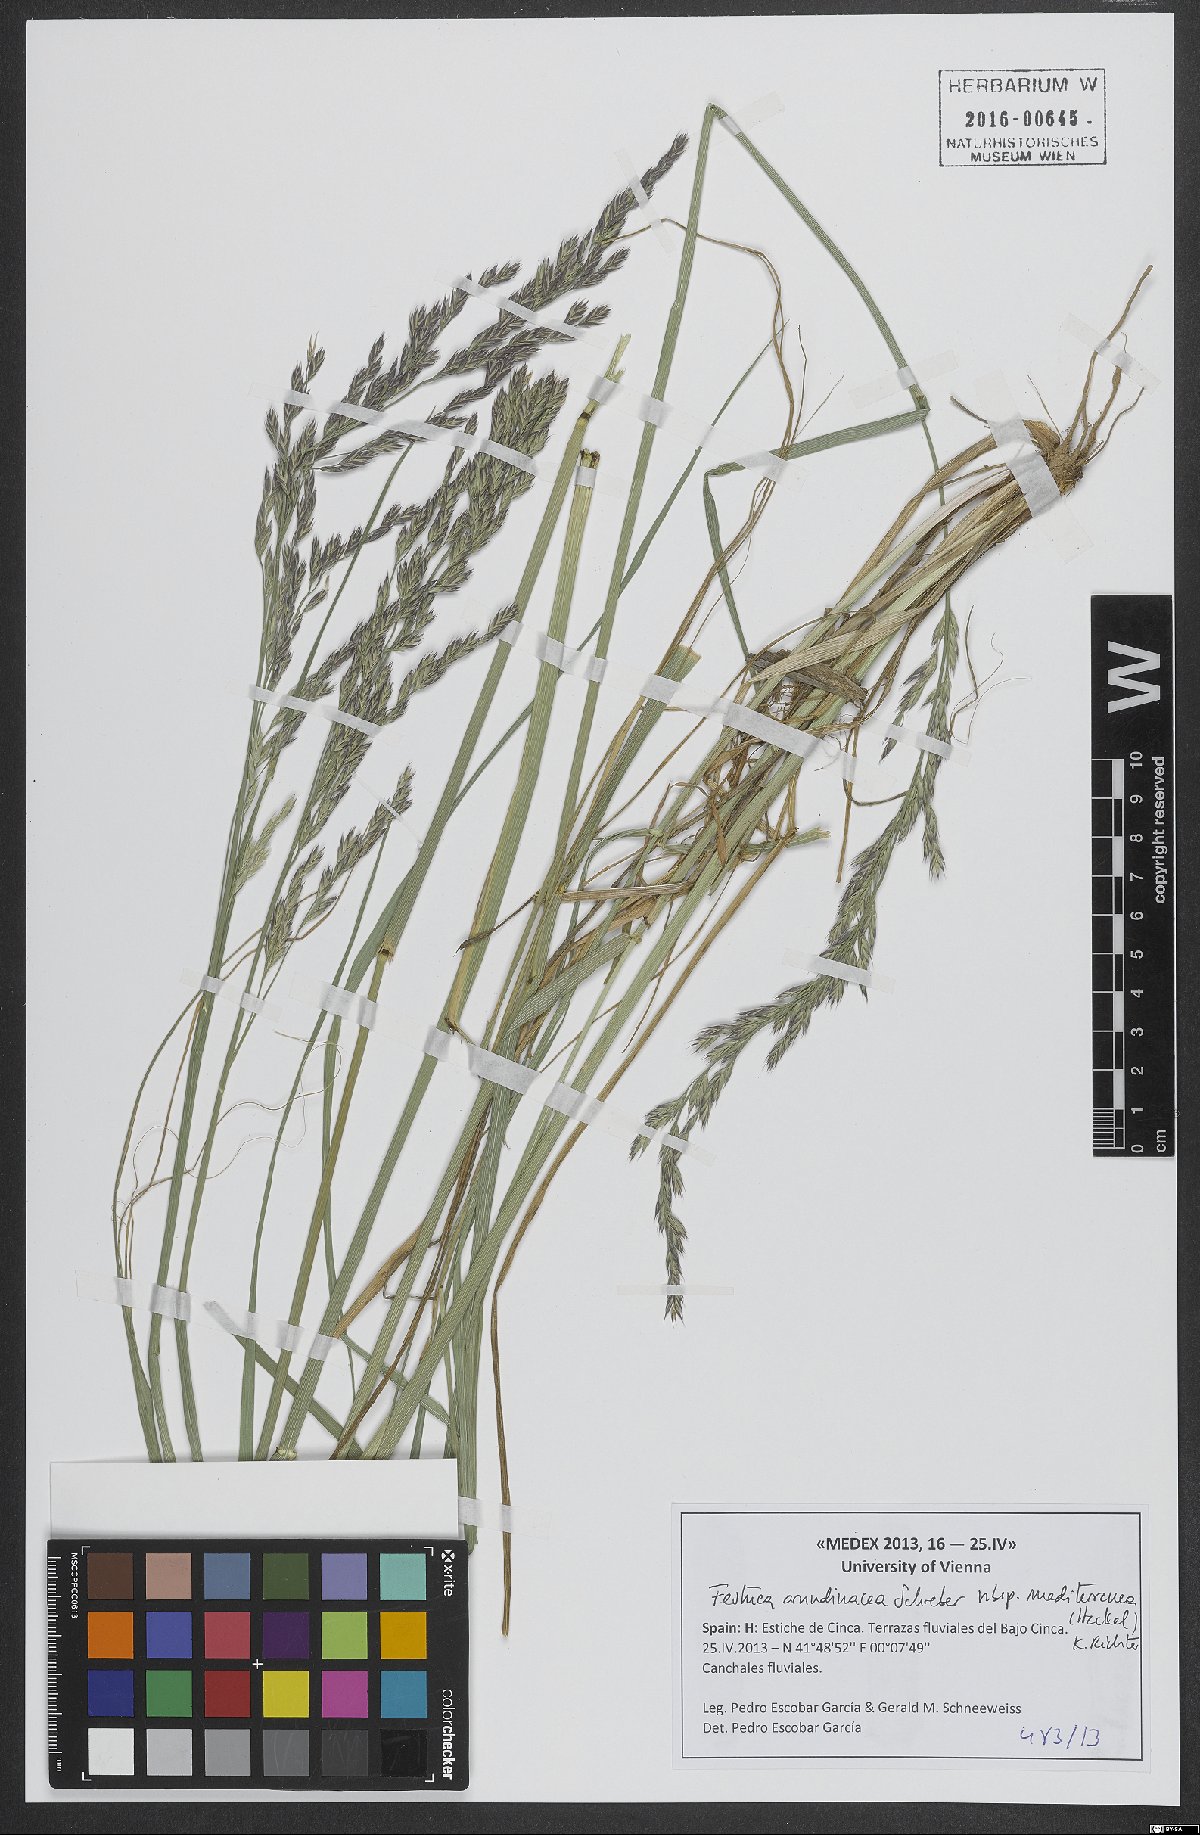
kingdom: Plantae
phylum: Tracheophyta
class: Liliopsida
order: Poales
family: Poaceae
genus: Lolium
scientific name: Lolium mediterraneum
